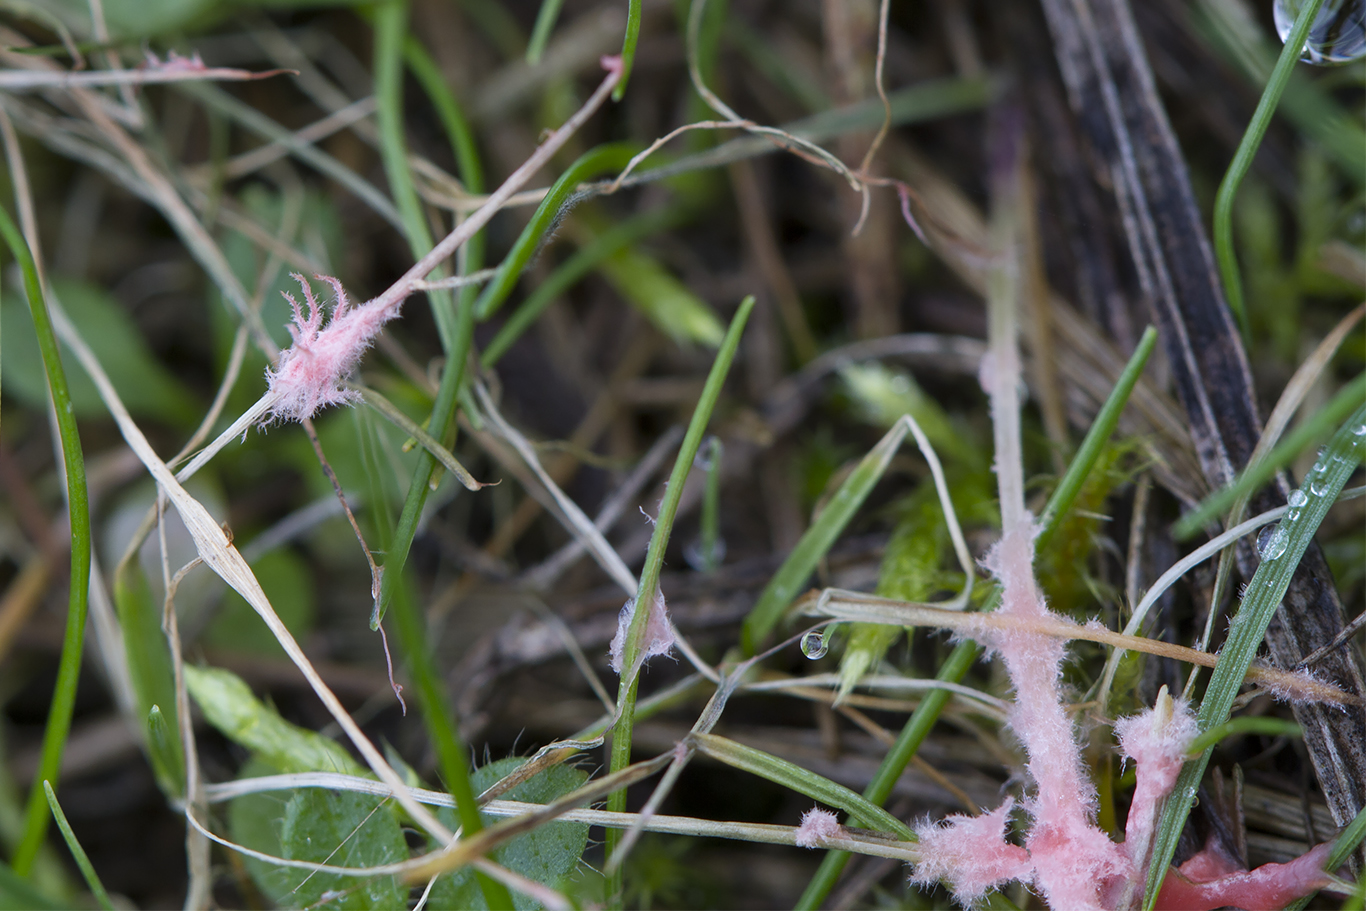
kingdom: Fungi
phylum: Basidiomycota
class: Agaricomycetes
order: Corticiales
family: Corticiaceae
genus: Laetisaria
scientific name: Laetisaria fuciformis
